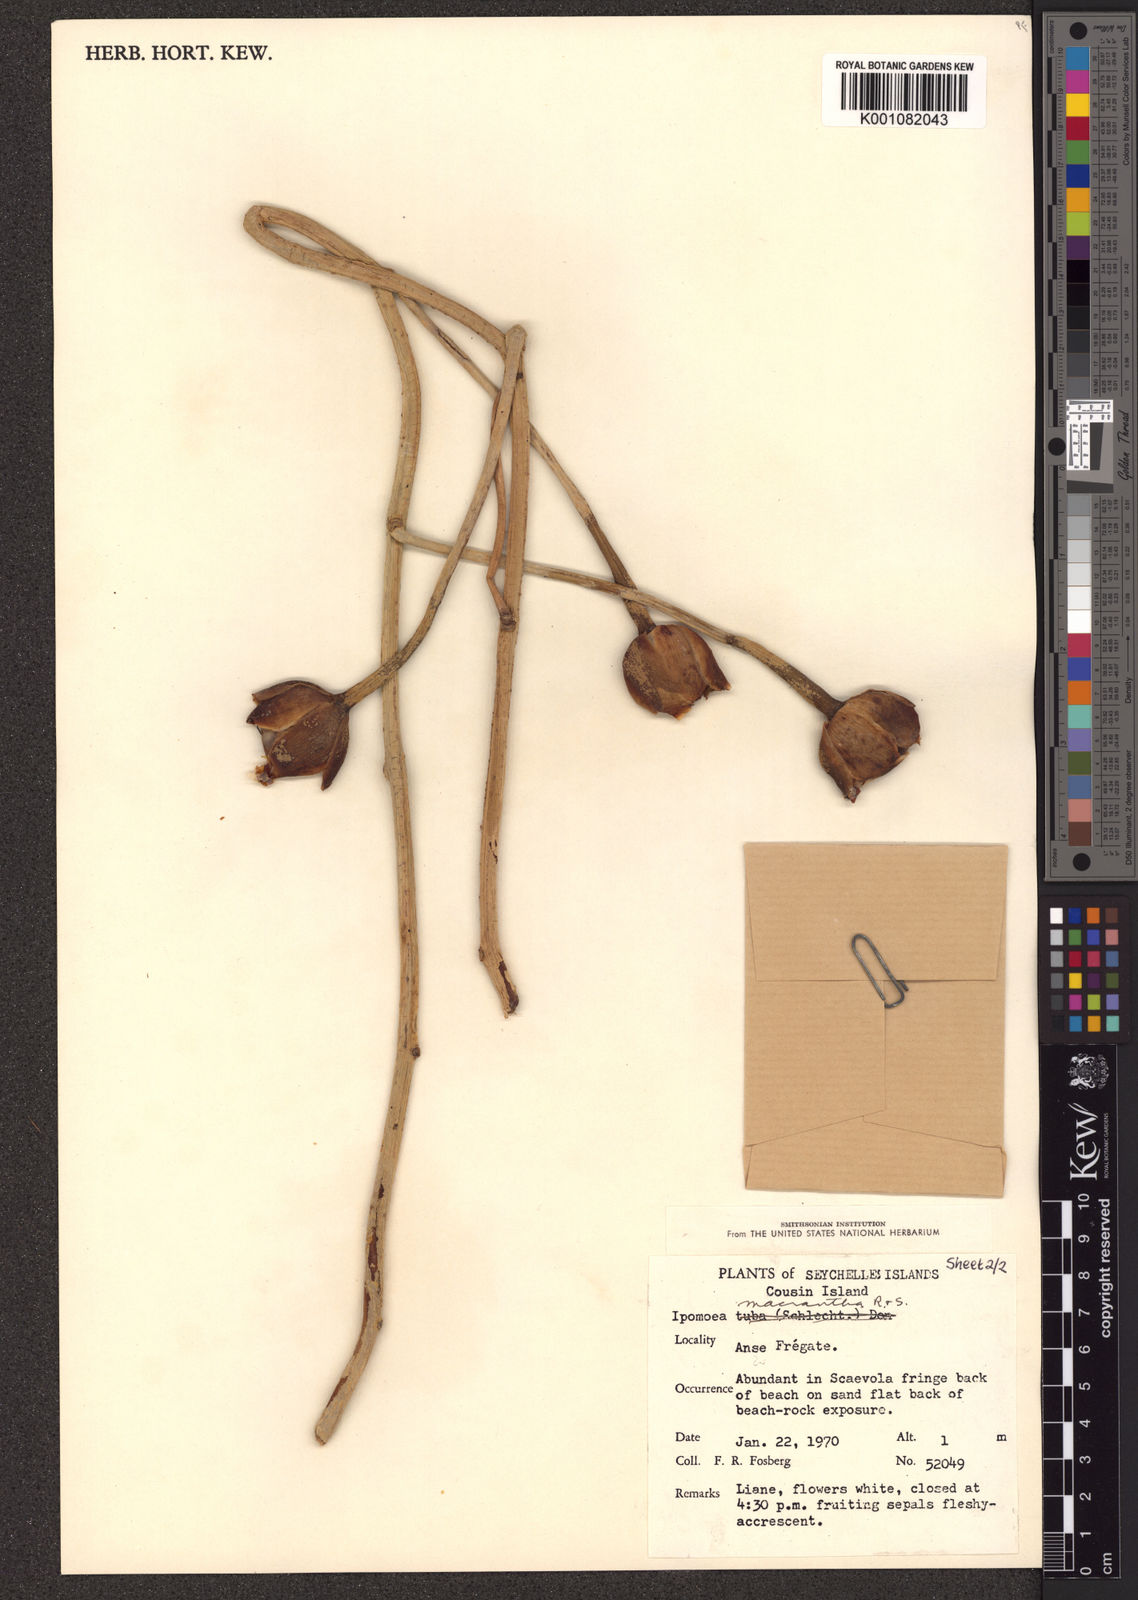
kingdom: Plantae
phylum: Tracheophyta
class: Magnoliopsida
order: Solanales
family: Convolvulaceae
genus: Ipomoea
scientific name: Ipomoea violacea
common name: Beach moonflower
